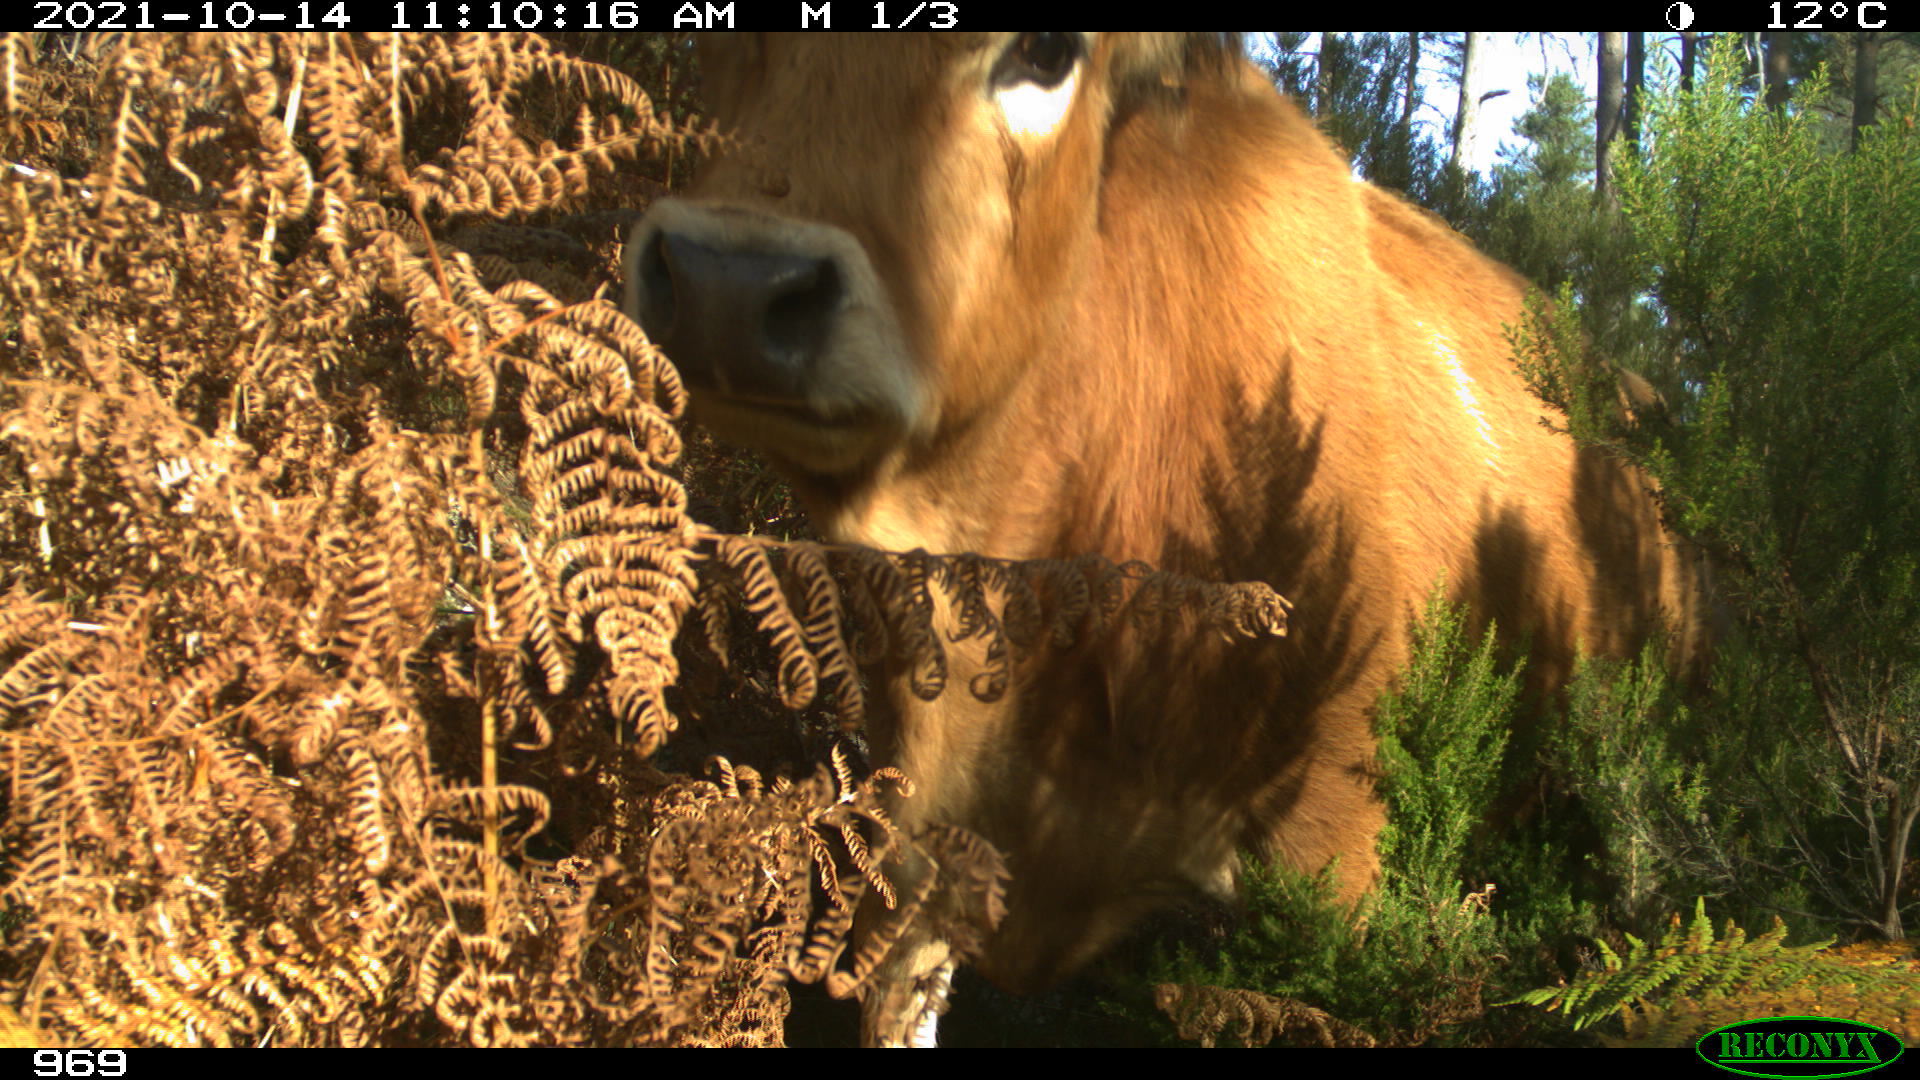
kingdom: Animalia
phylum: Chordata
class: Mammalia
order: Artiodactyla
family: Bovidae
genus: Bos
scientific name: Bos taurus
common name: Domesticated cattle
